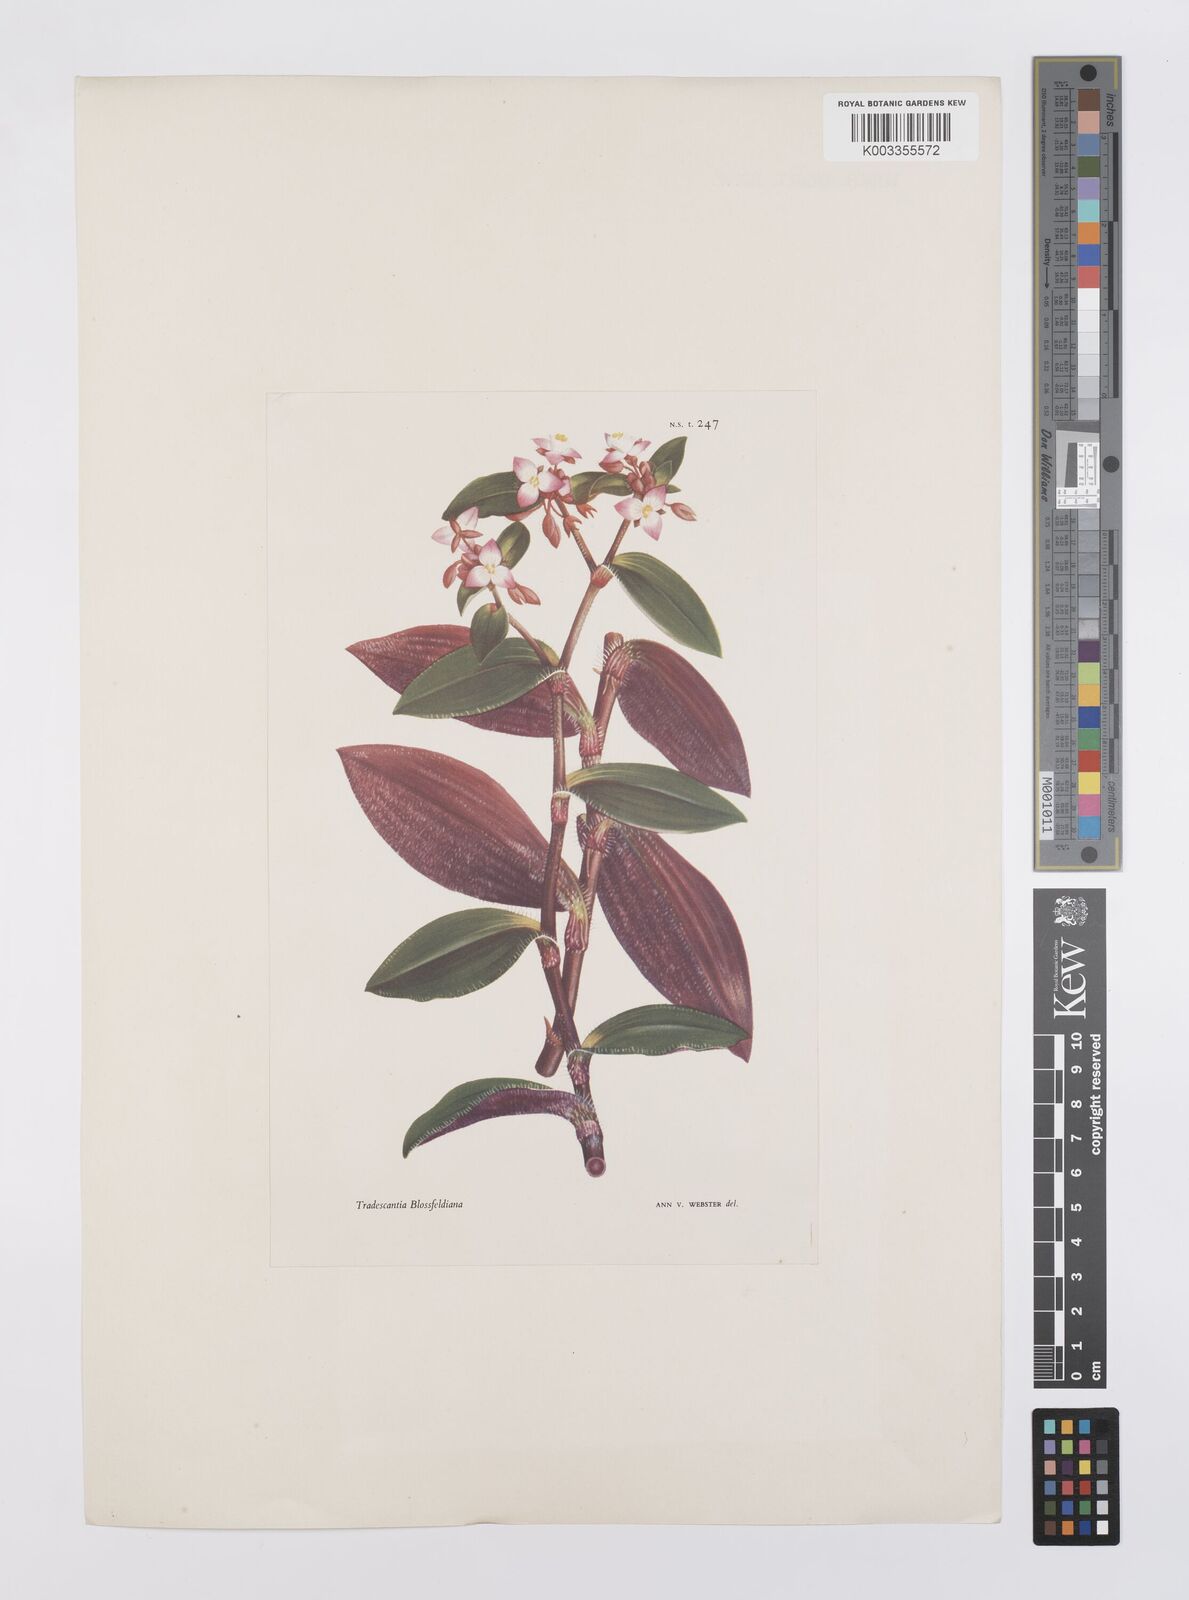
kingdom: Plantae
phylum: Tracheophyta
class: Liliopsida
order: Commelinales
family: Commelinaceae
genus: Tradescantia
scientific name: Tradescantia cerinthoides
